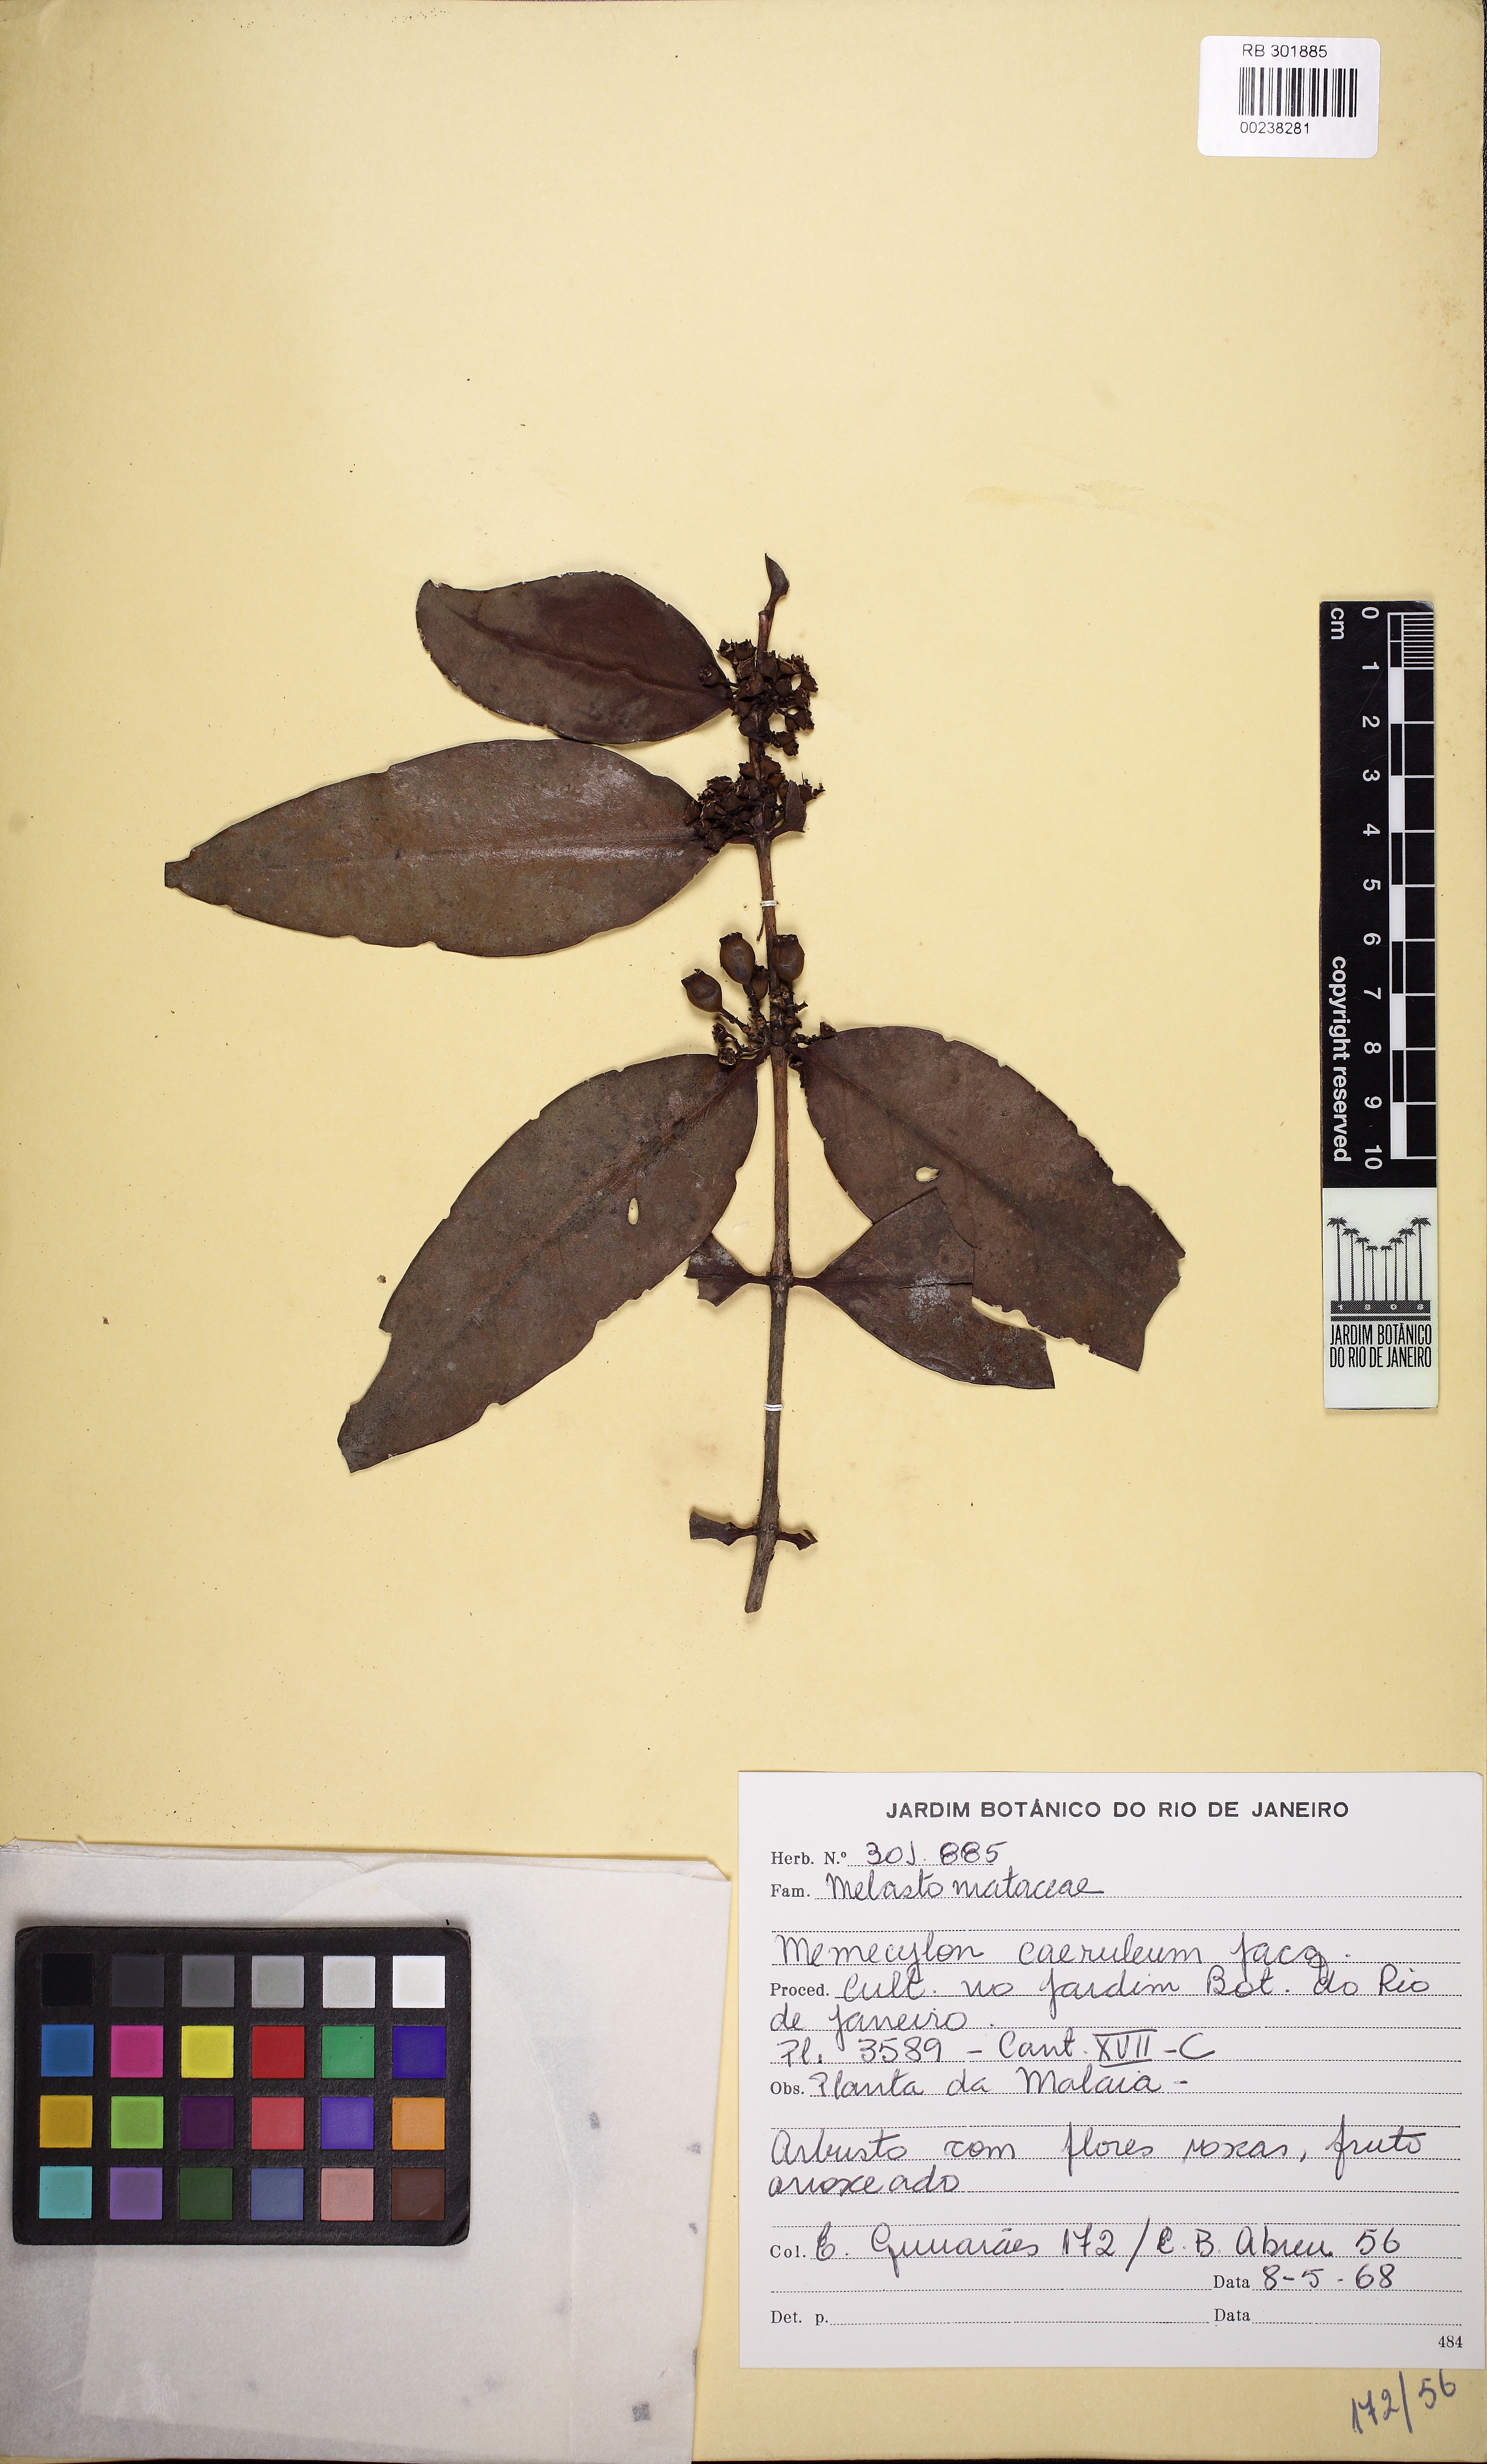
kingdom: Plantae
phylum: Tracheophyta
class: Magnoliopsida
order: Myrtales
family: Melastomataceae
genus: Memecylon
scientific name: Memecylon caeruleum
